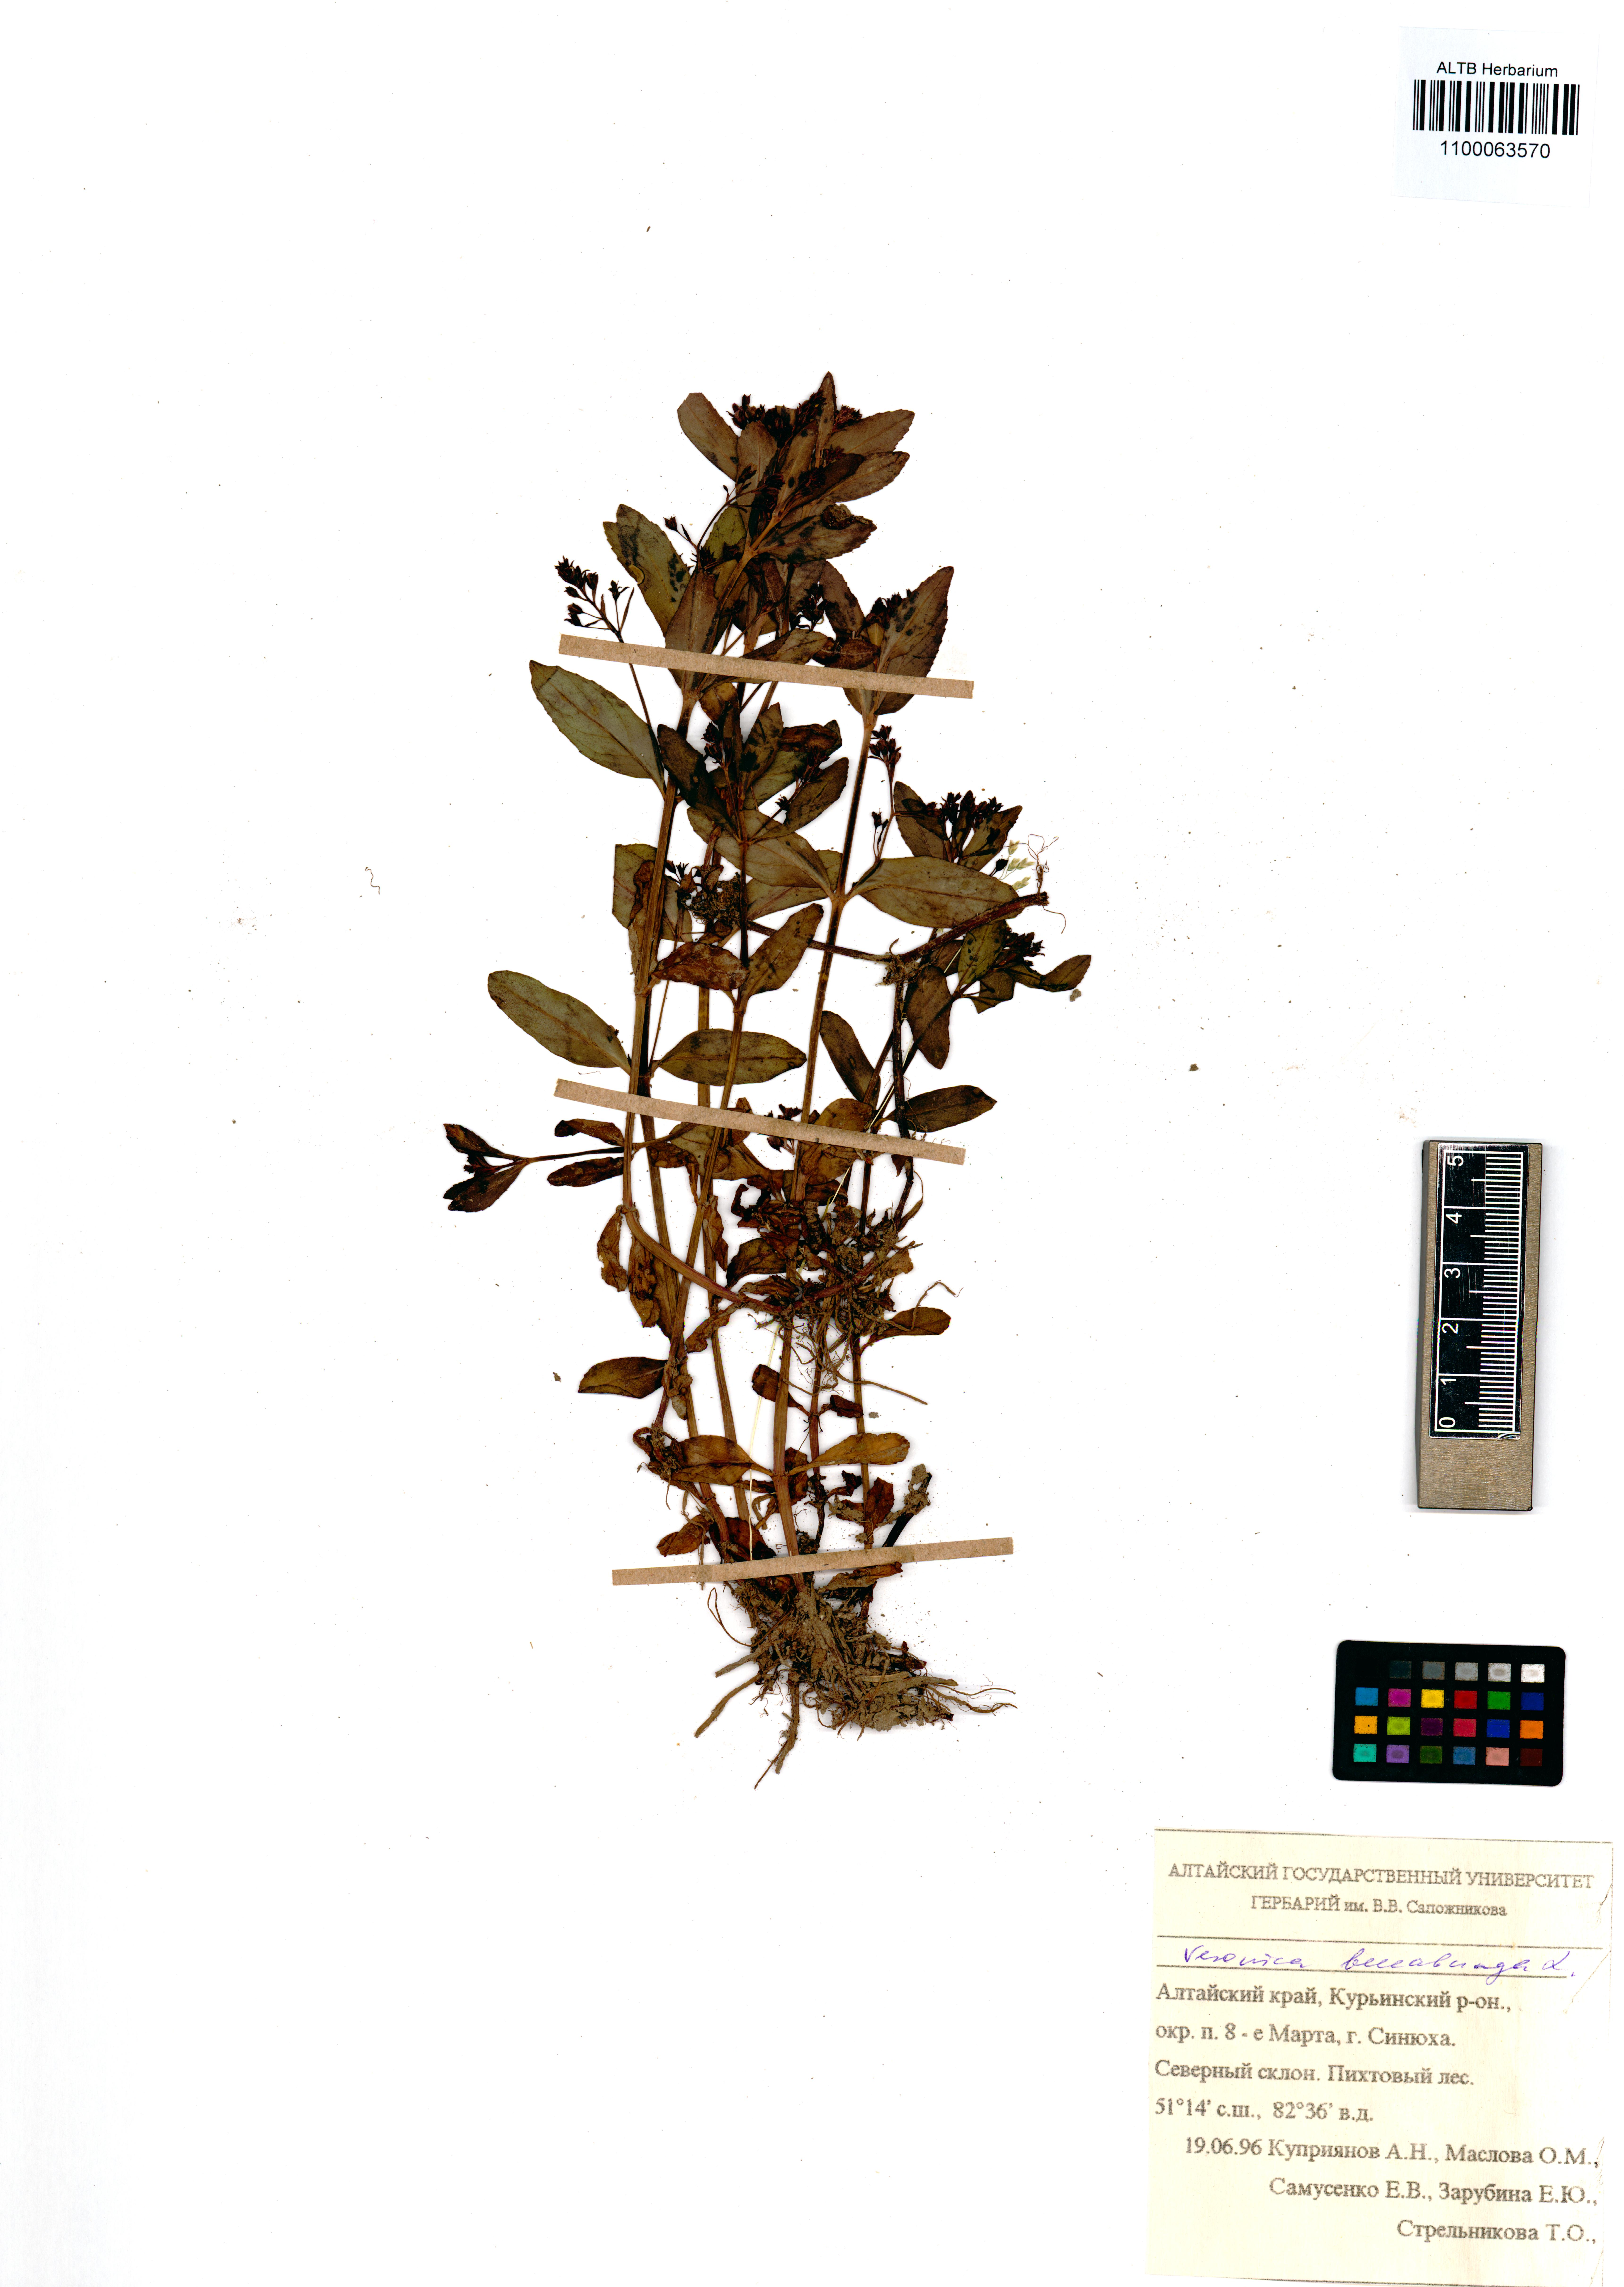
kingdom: Plantae
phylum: Tracheophyta
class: Magnoliopsida
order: Lamiales
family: Plantaginaceae
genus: Veronica
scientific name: Veronica beccabunga
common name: Brooklime
